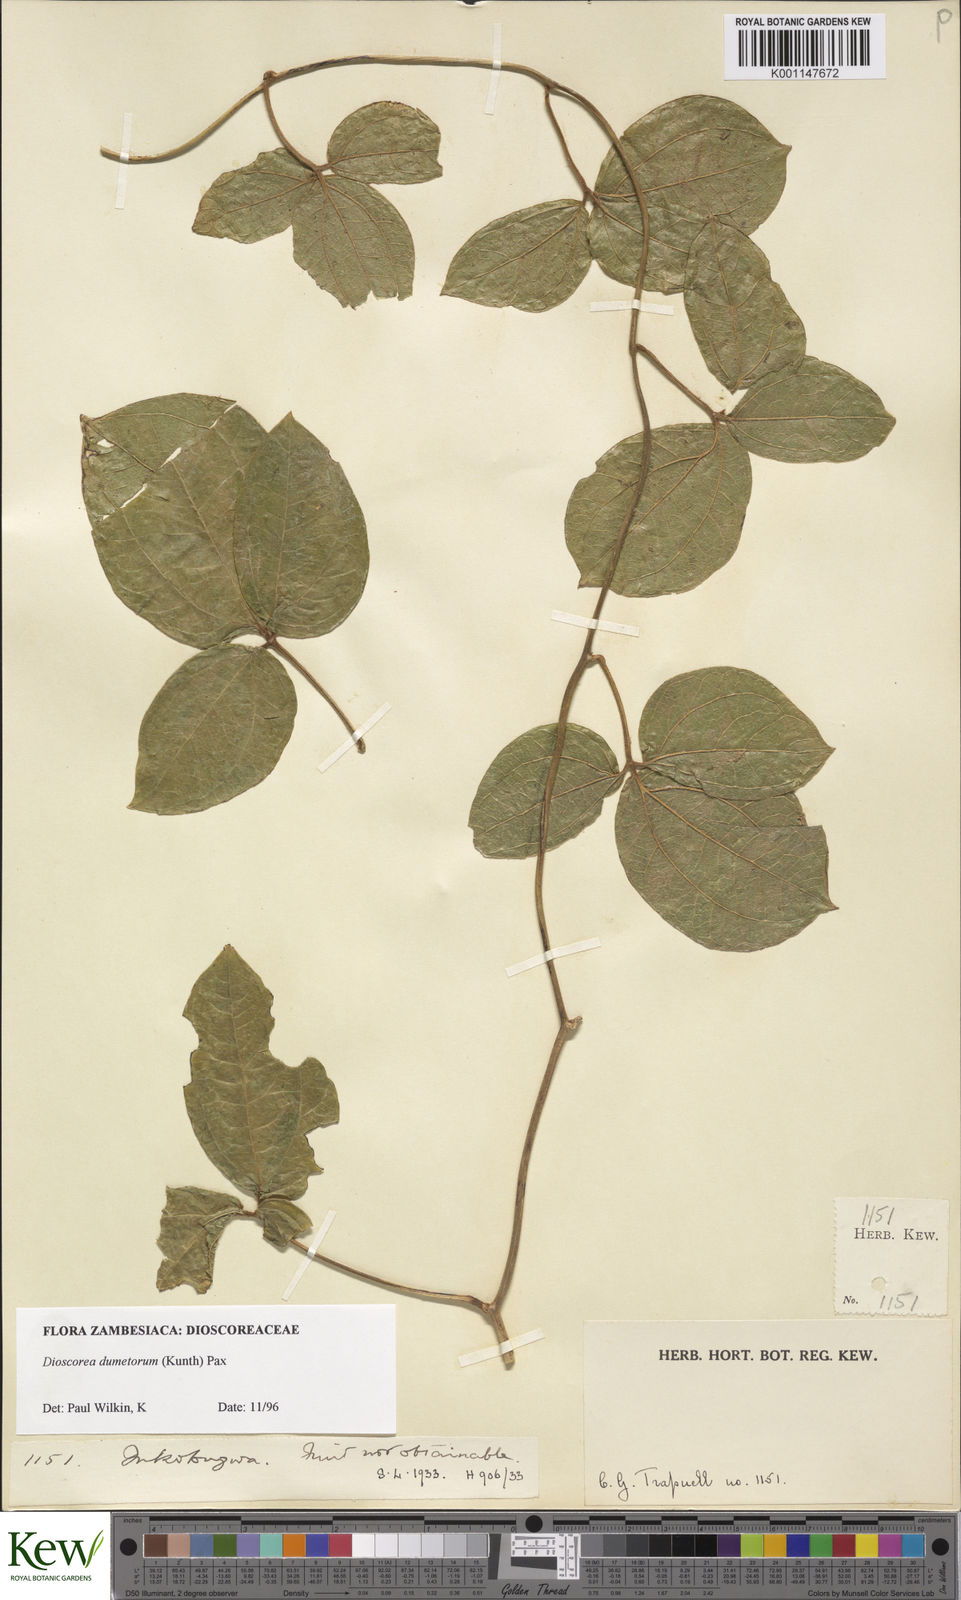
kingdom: Plantae
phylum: Tracheophyta
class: Liliopsida
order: Dioscoreales
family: Dioscoreaceae
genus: Dioscorea
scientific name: Dioscorea dumetorum
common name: African bitter yam
